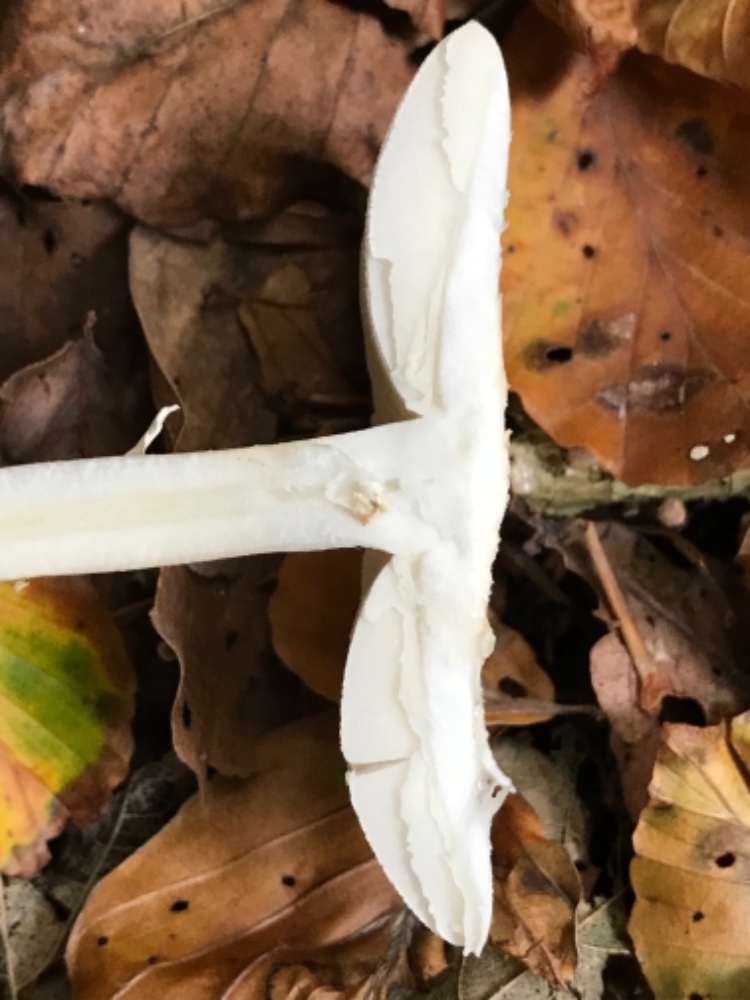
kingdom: Fungi
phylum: Basidiomycota
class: Agaricomycetes
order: Agaricales
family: Amanitaceae
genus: Amanita
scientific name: Amanita citrina
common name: False death-cap
